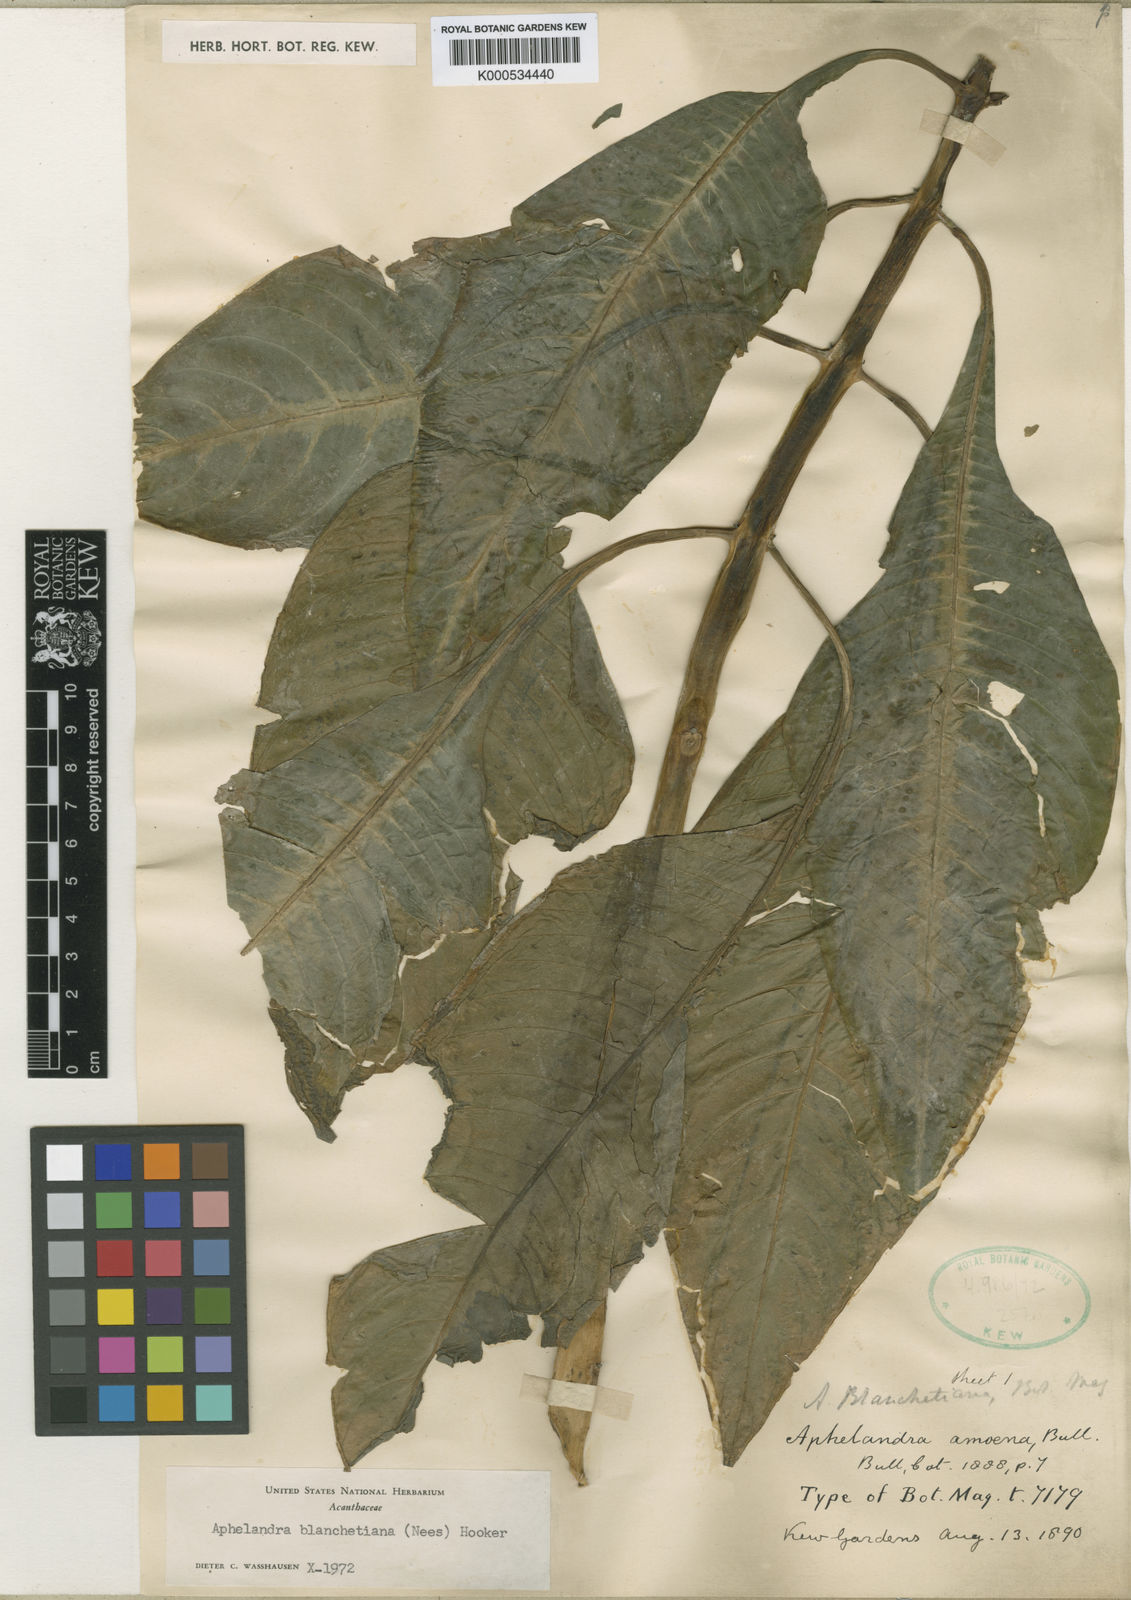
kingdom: Plantae
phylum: Tracheophyta
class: Magnoliopsida
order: Lamiales
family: Acanthaceae
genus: Aphelandra
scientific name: Aphelandra blanchetiana
